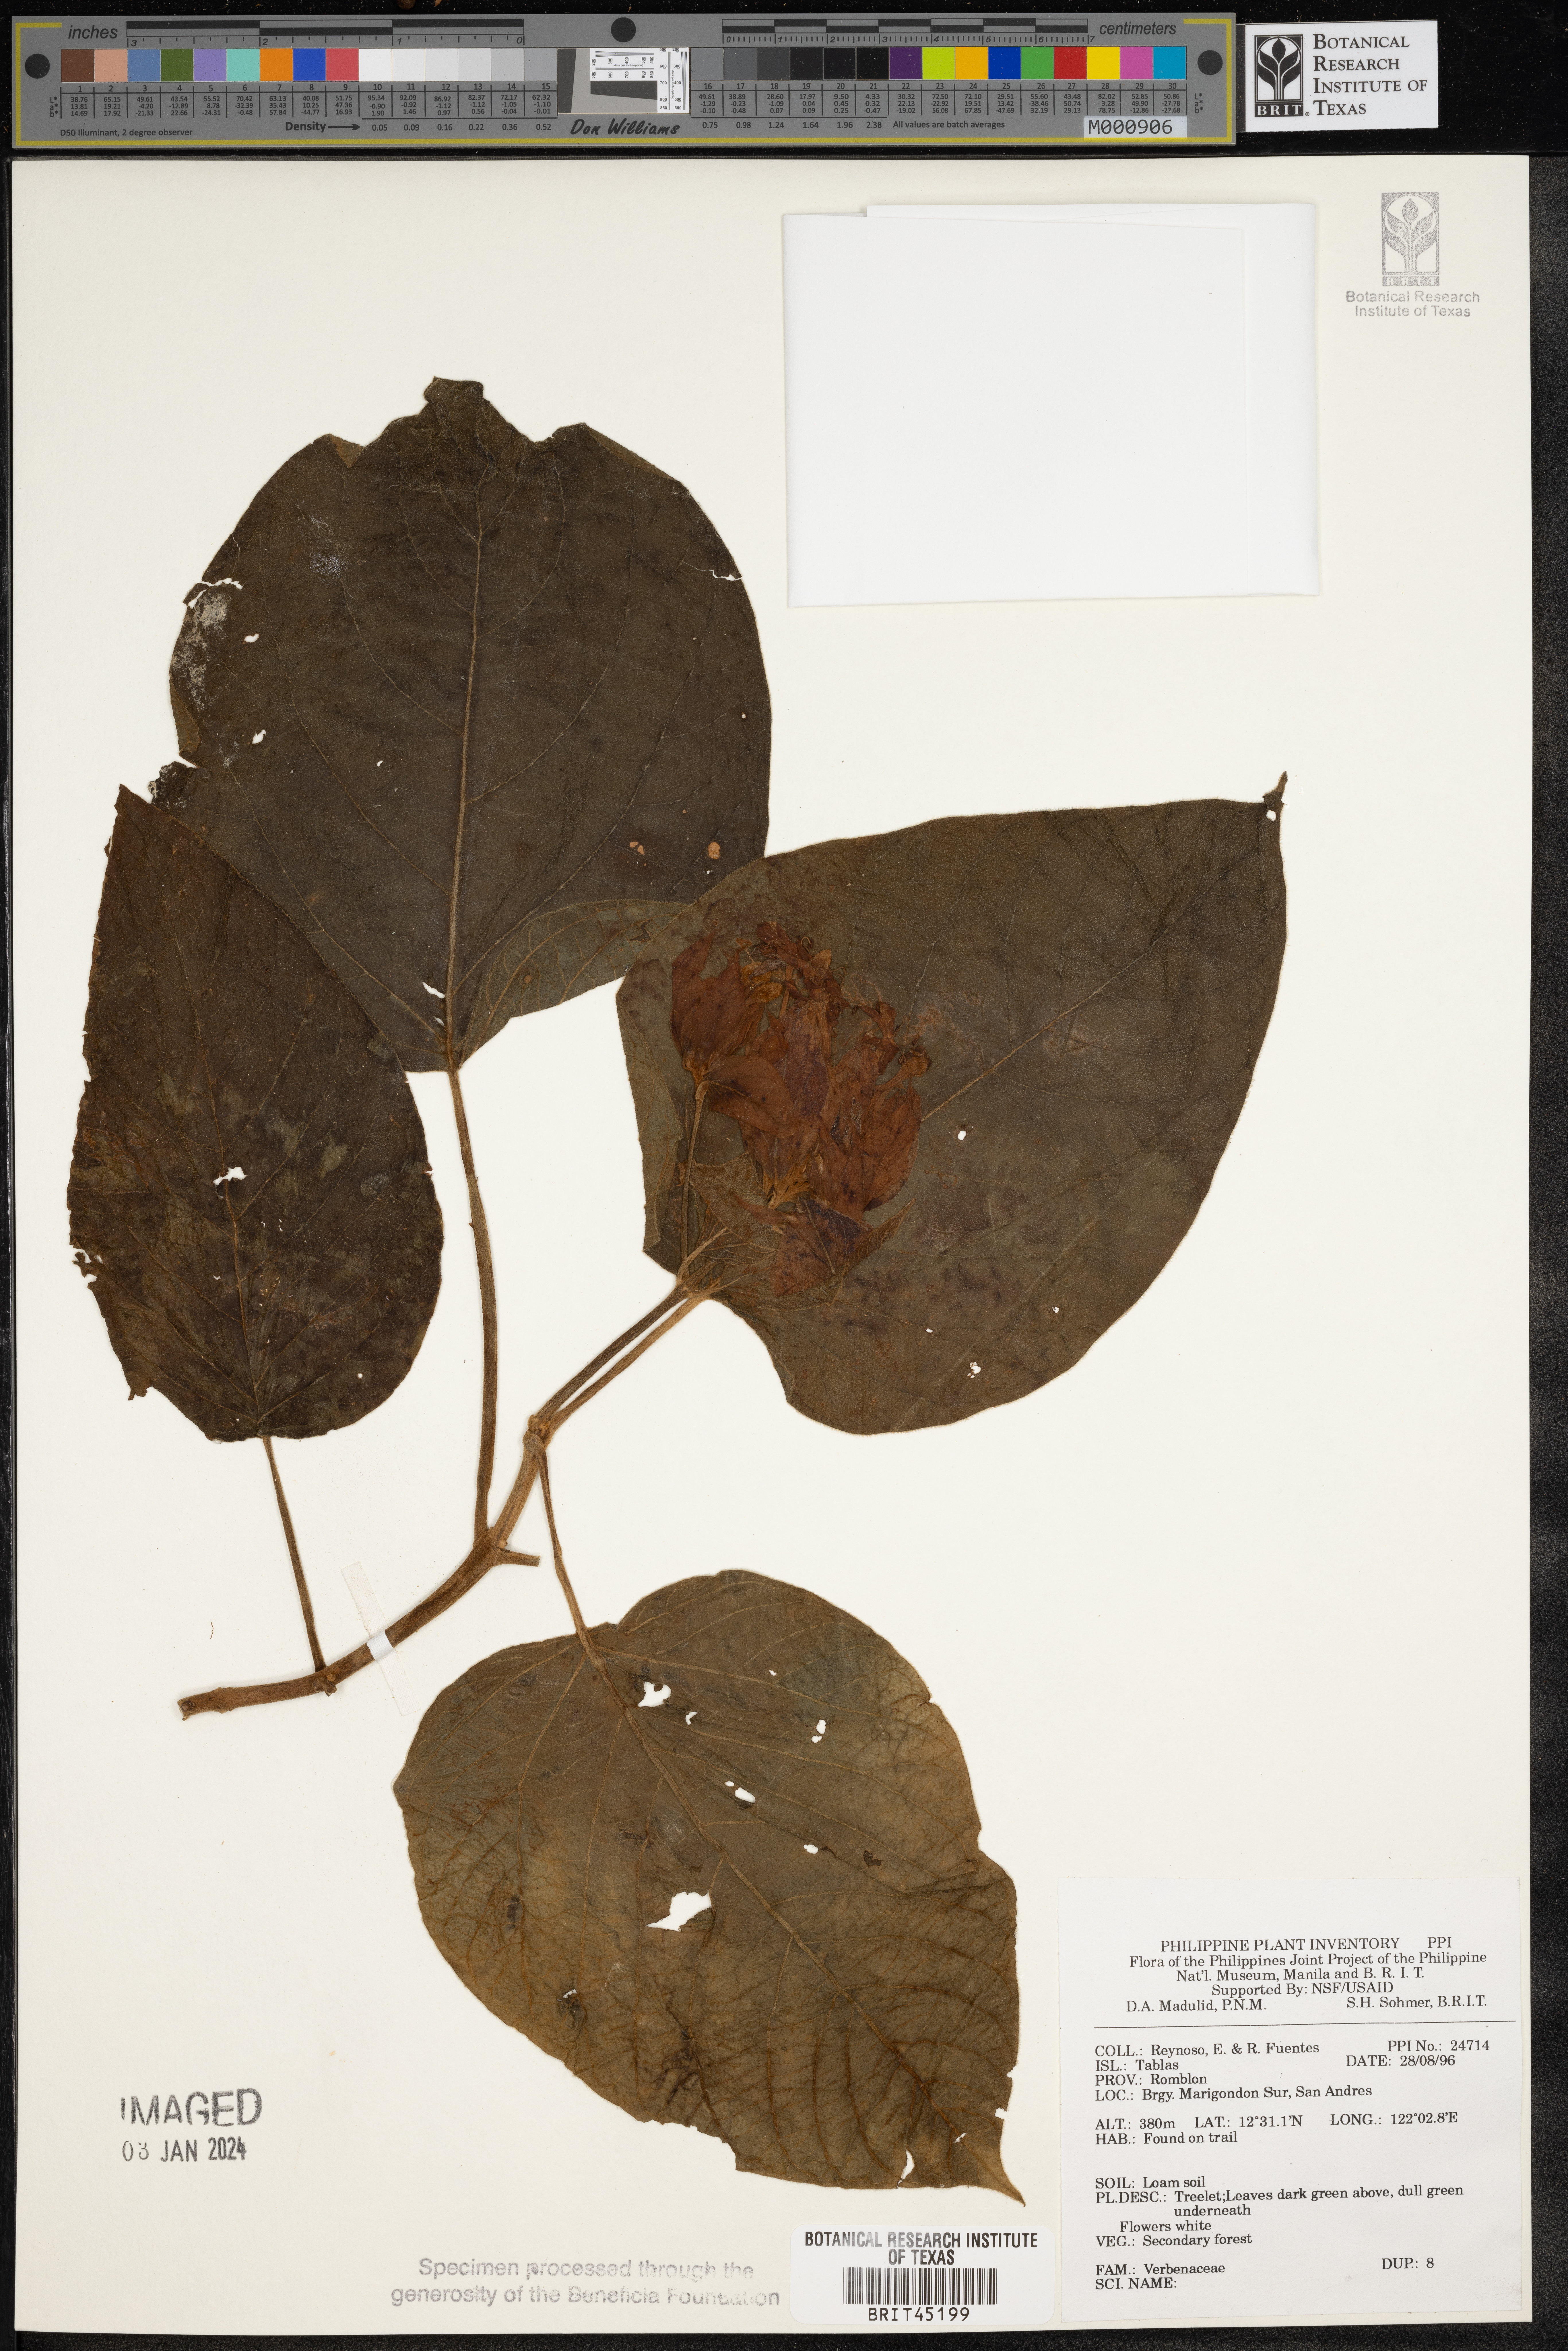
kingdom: Plantae
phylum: Tracheophyta
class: Magnoliopsida
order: Lamiales
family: Verbenaceae
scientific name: Verbenaceae
